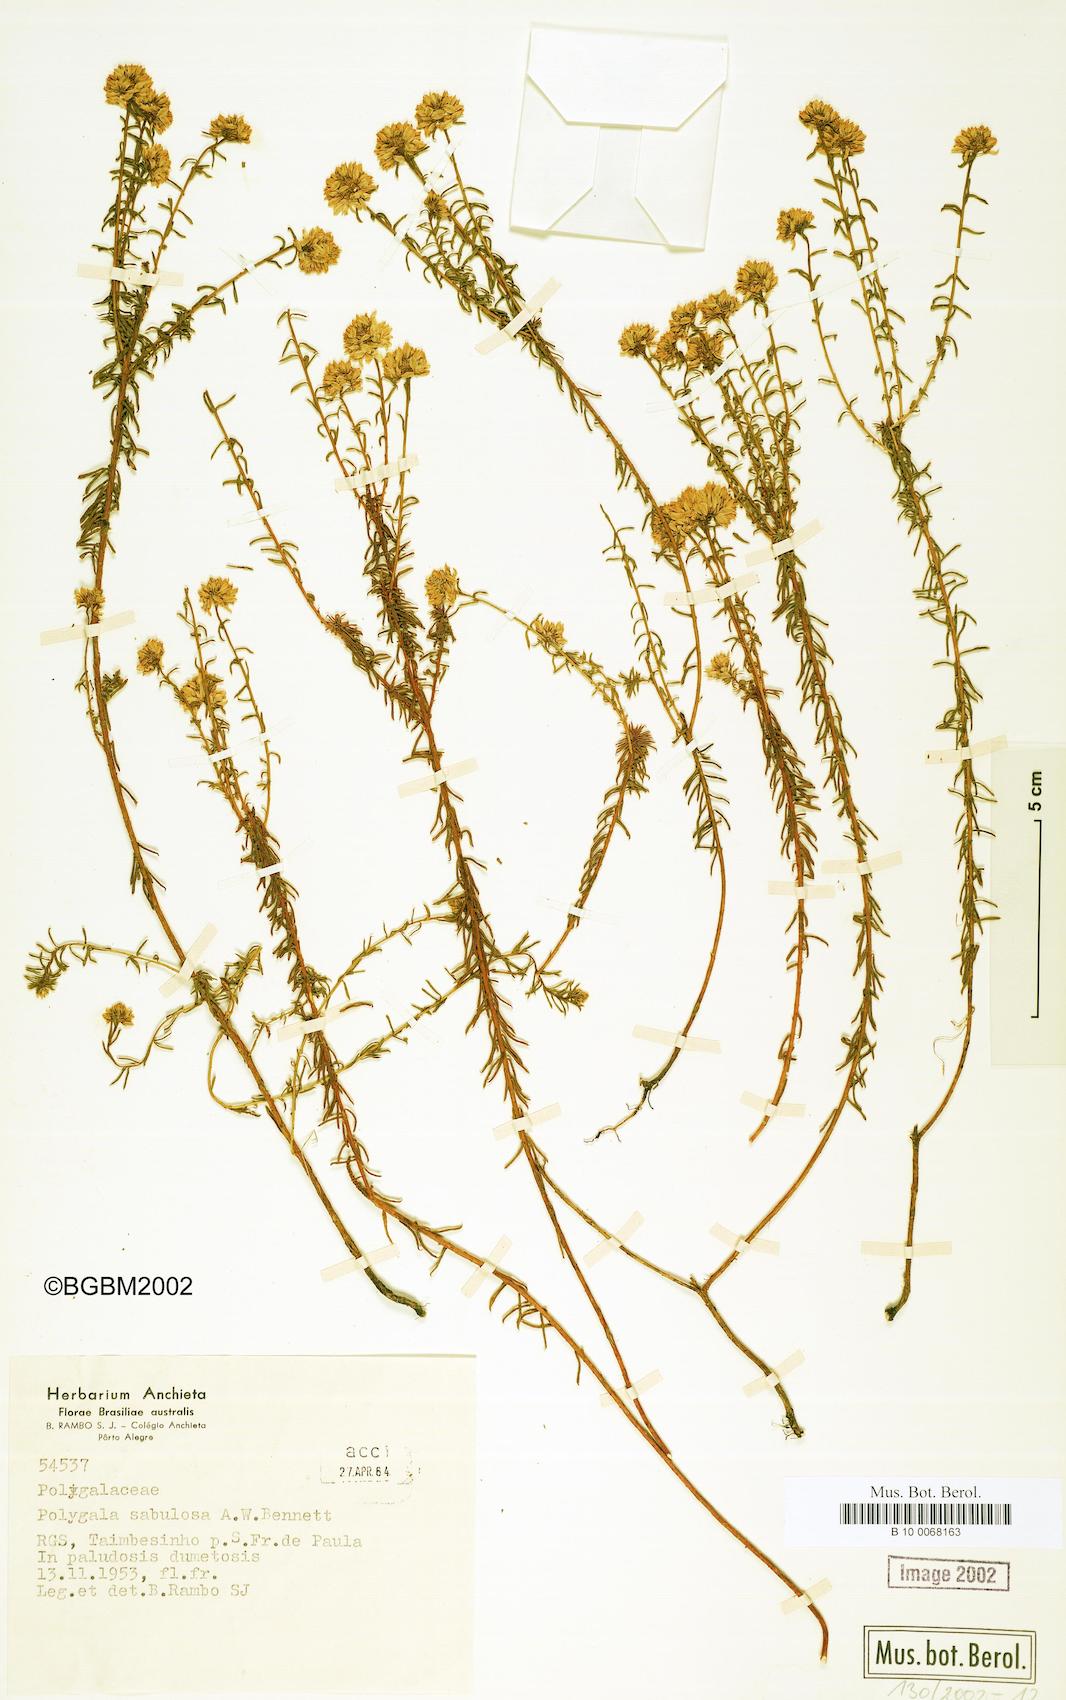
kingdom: Plantae
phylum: Tracheophyta
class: Magnoliopsida
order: Fabales
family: Polygalaceae
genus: Polygala
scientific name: Polygala sellowiana
